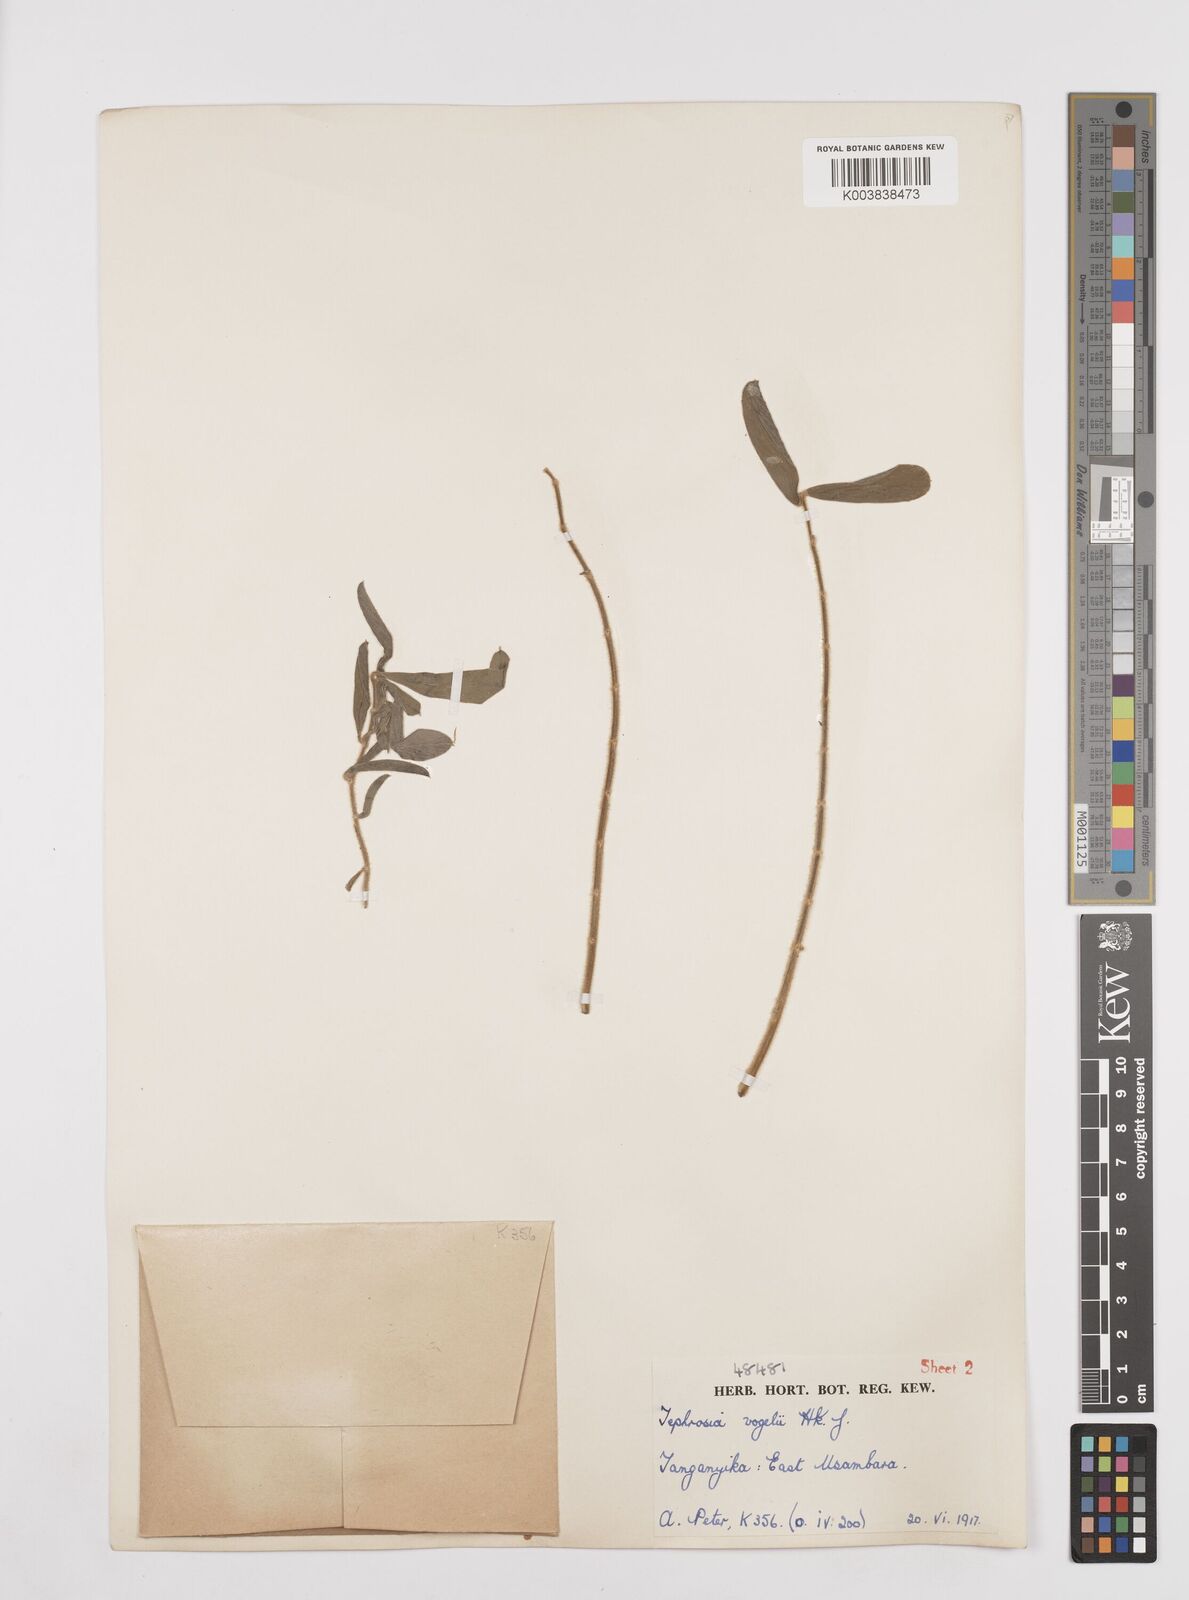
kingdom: Plantae
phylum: Tracheophyta
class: Magnoliopsida
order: Fabales
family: Fabaceae
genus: Tephrosia
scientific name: Tephrosia vogelii
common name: Vogel tephrosia
